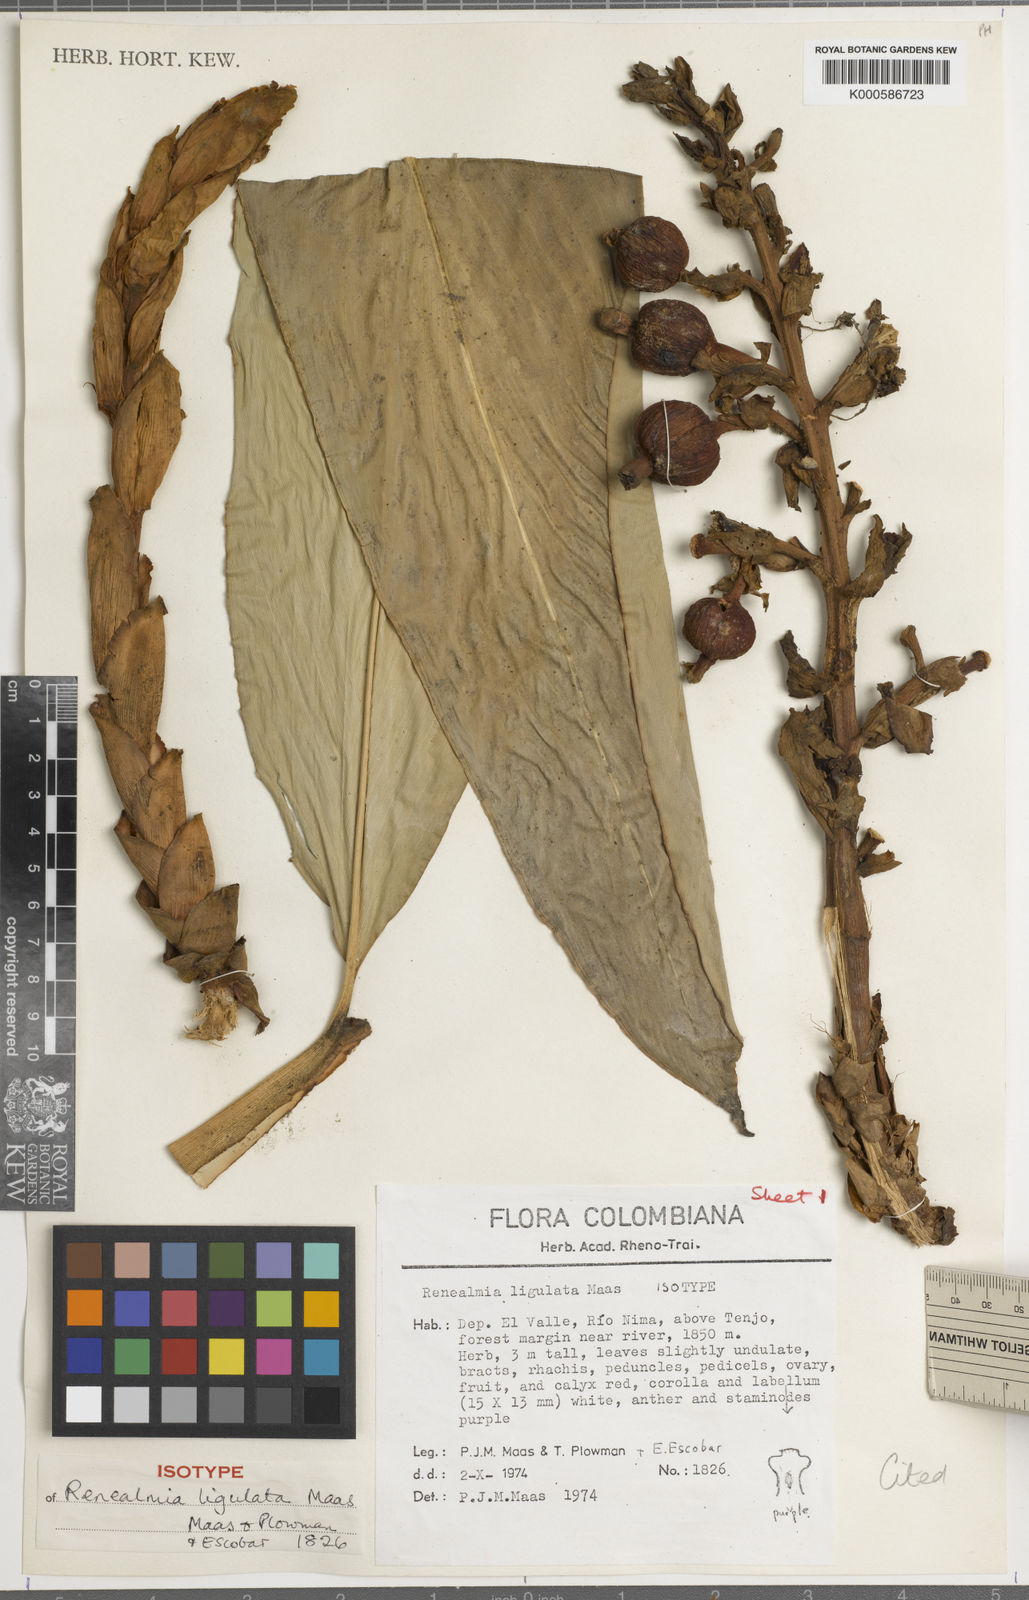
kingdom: Plantae
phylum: Tracheophyta
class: Liliopsida
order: Zingiberales
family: Zingiberaceae
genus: Renealmia
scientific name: Renealmia ligulata
